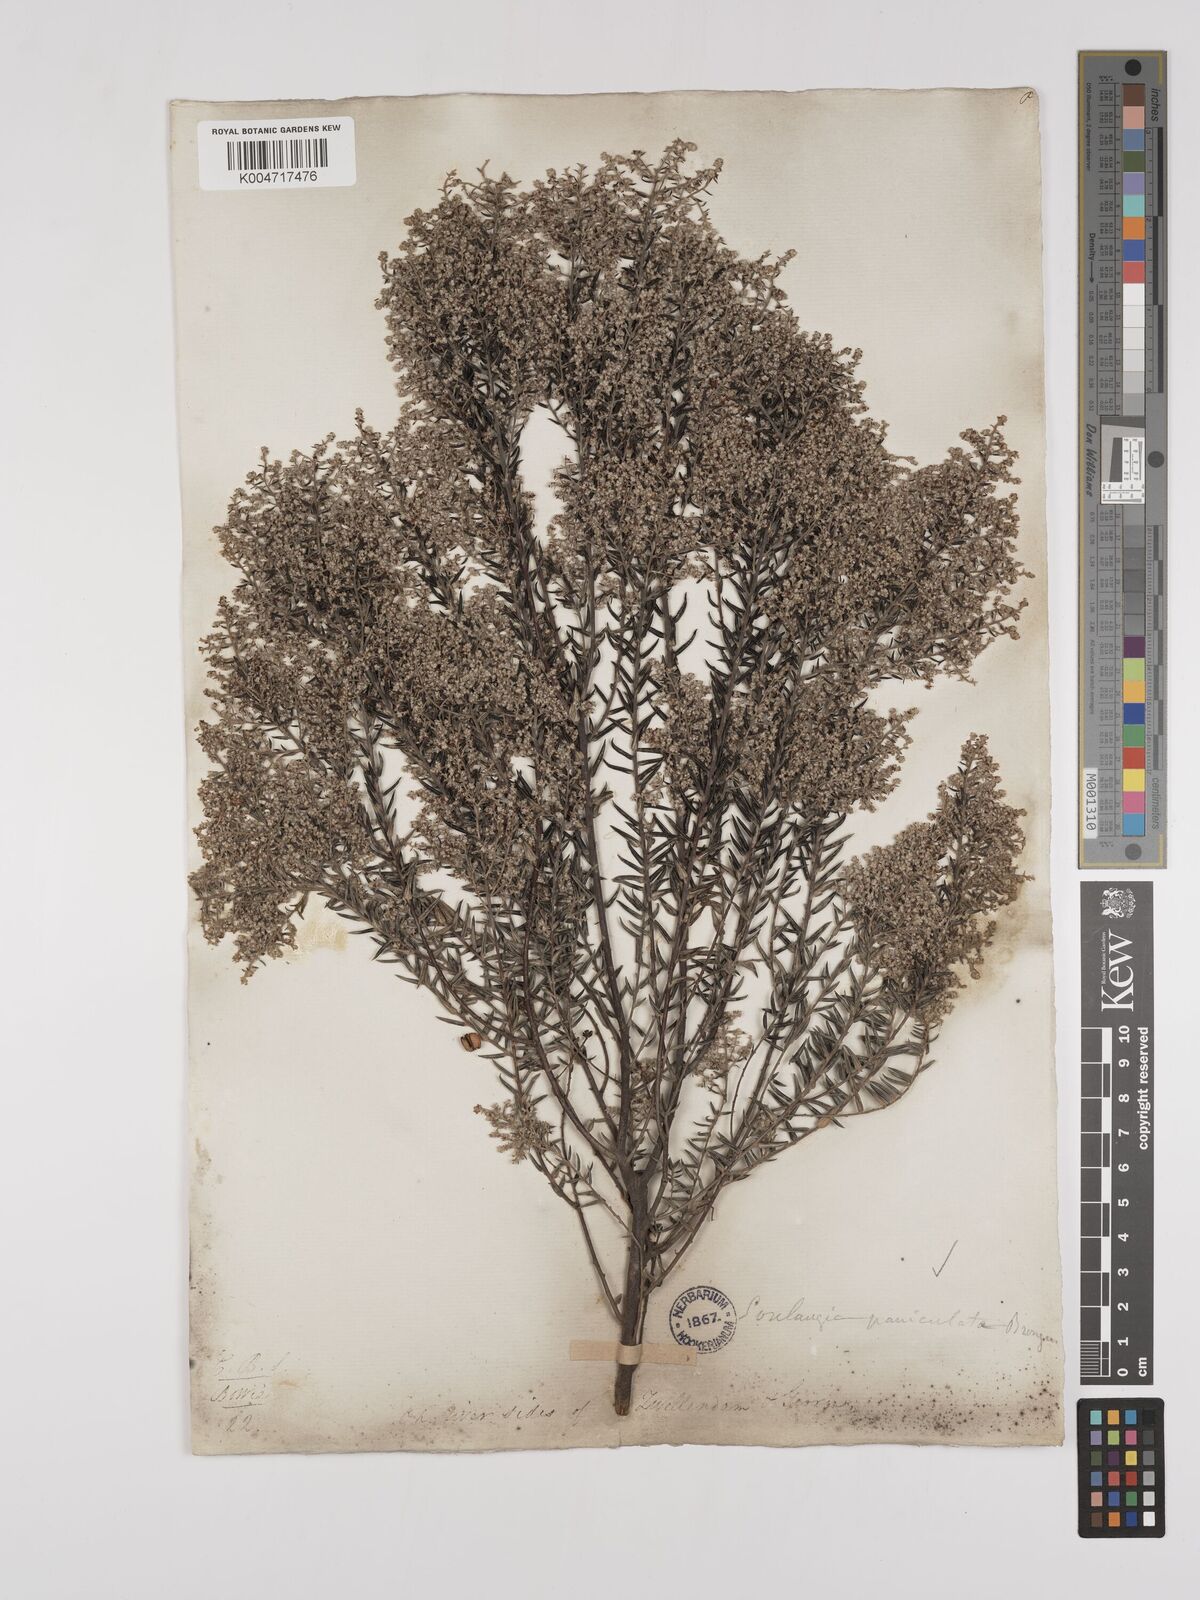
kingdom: Plantae
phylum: Tracheophyta
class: Magnoliopsida
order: Rosales
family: Rhamnaceae
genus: Phylica
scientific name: Phylica paniculata
